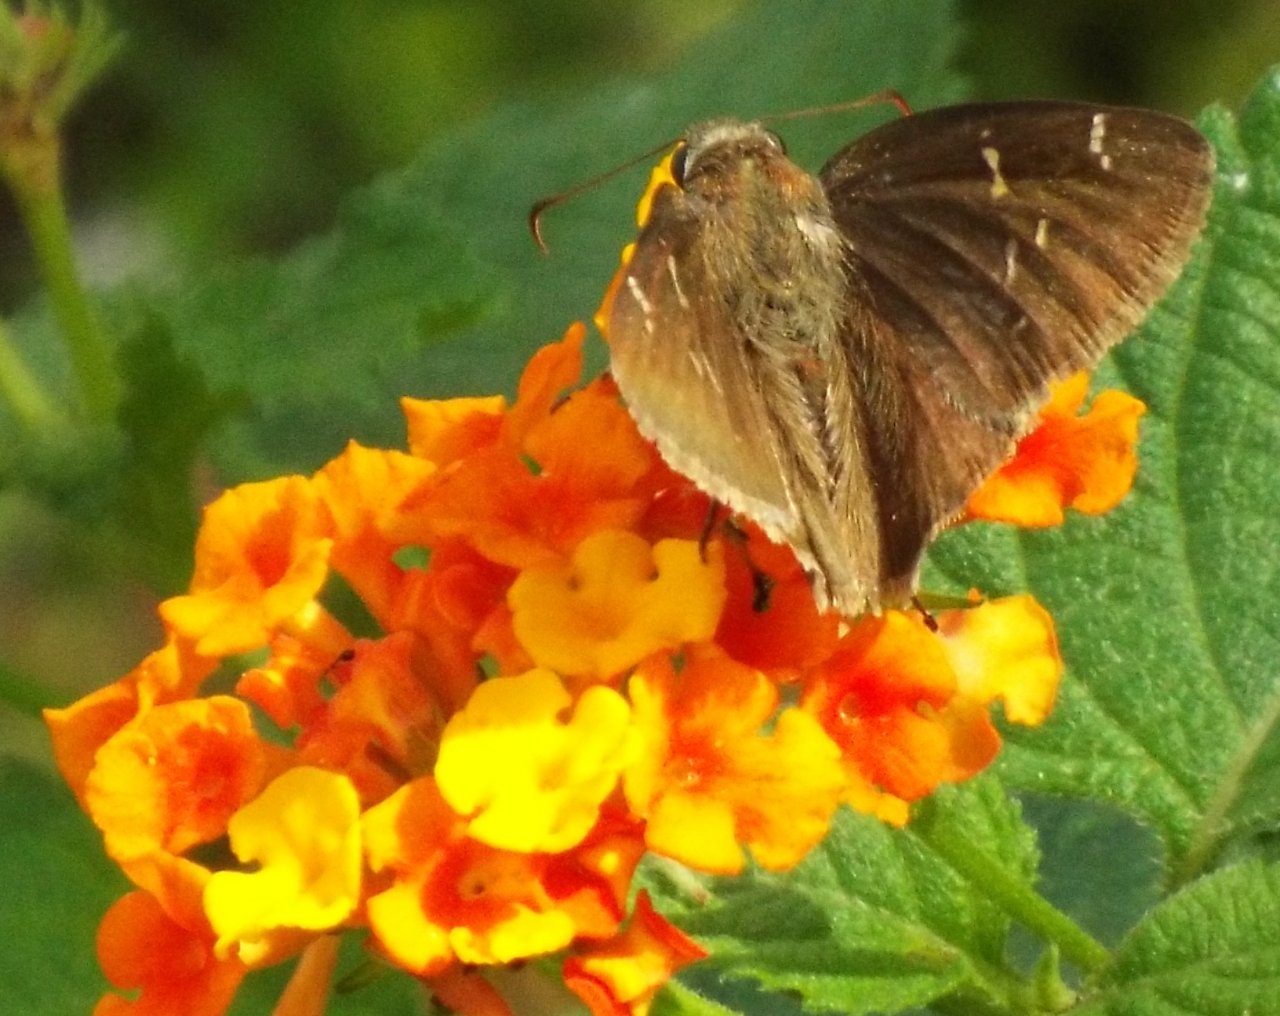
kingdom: Animalia
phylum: Arthropoda
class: Insecta
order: Lepidoptera
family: Hesperiidae
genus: Thorybes
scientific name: Thorybes mexicana
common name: Confused Cloudywing
